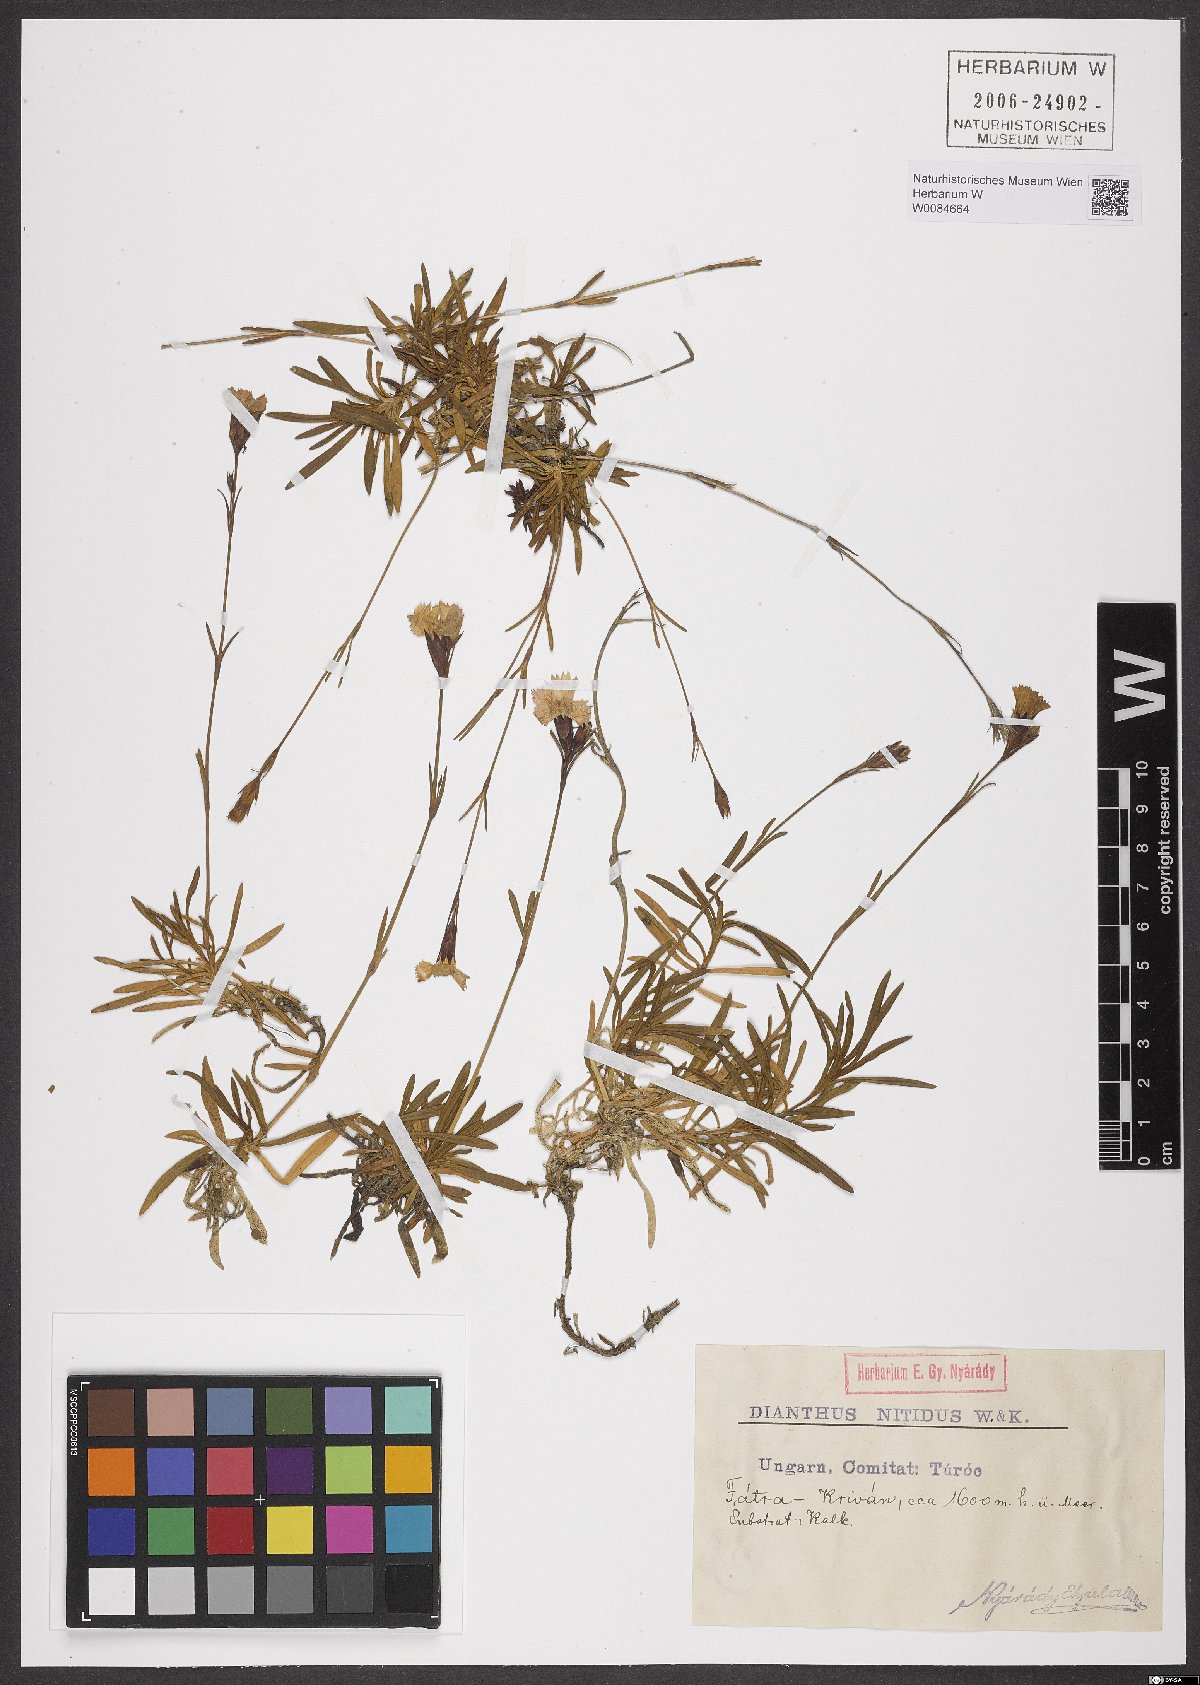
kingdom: Plantae
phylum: Tracheophyta
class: Magnoliopsida
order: Caryophyllales
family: Caryophyllaceae
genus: Dianthus
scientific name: Dianthus nitidus
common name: Carpathian glossy pink
